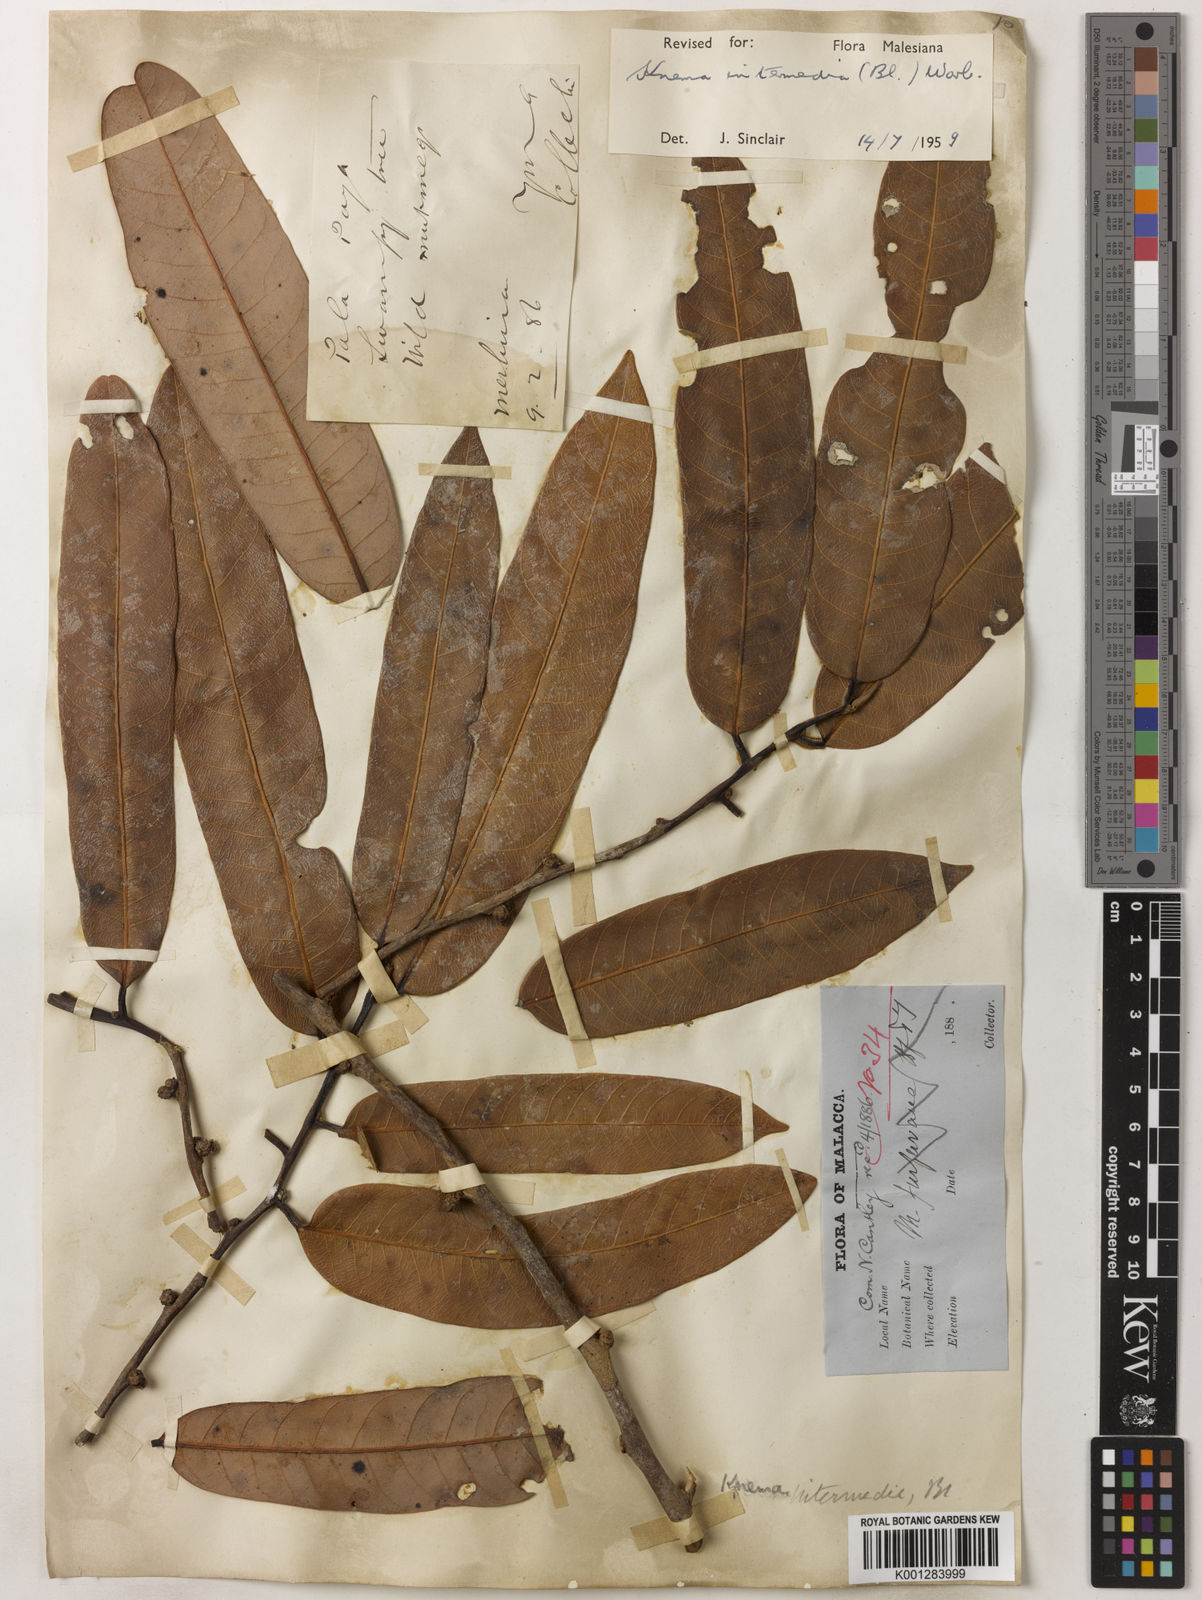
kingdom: Plantae
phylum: Tracheophyta
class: Magnoliopsida
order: Magnoliales
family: Myristicaceae
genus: Knema
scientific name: Knema intermedia
